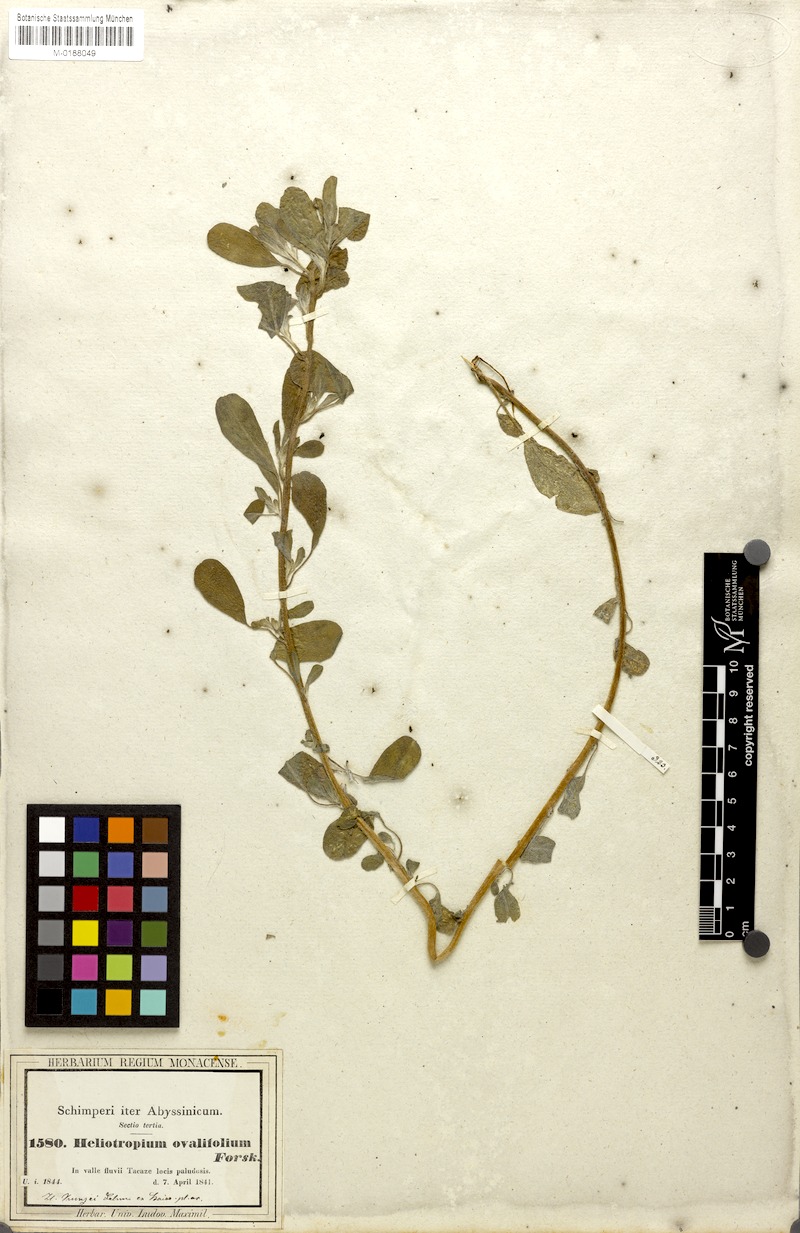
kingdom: Plantae
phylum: Tracheophyta
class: Magnoliopsida
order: Boraginales
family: Heliotropiaceae
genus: Euploca
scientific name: Euploca ovalifolia
